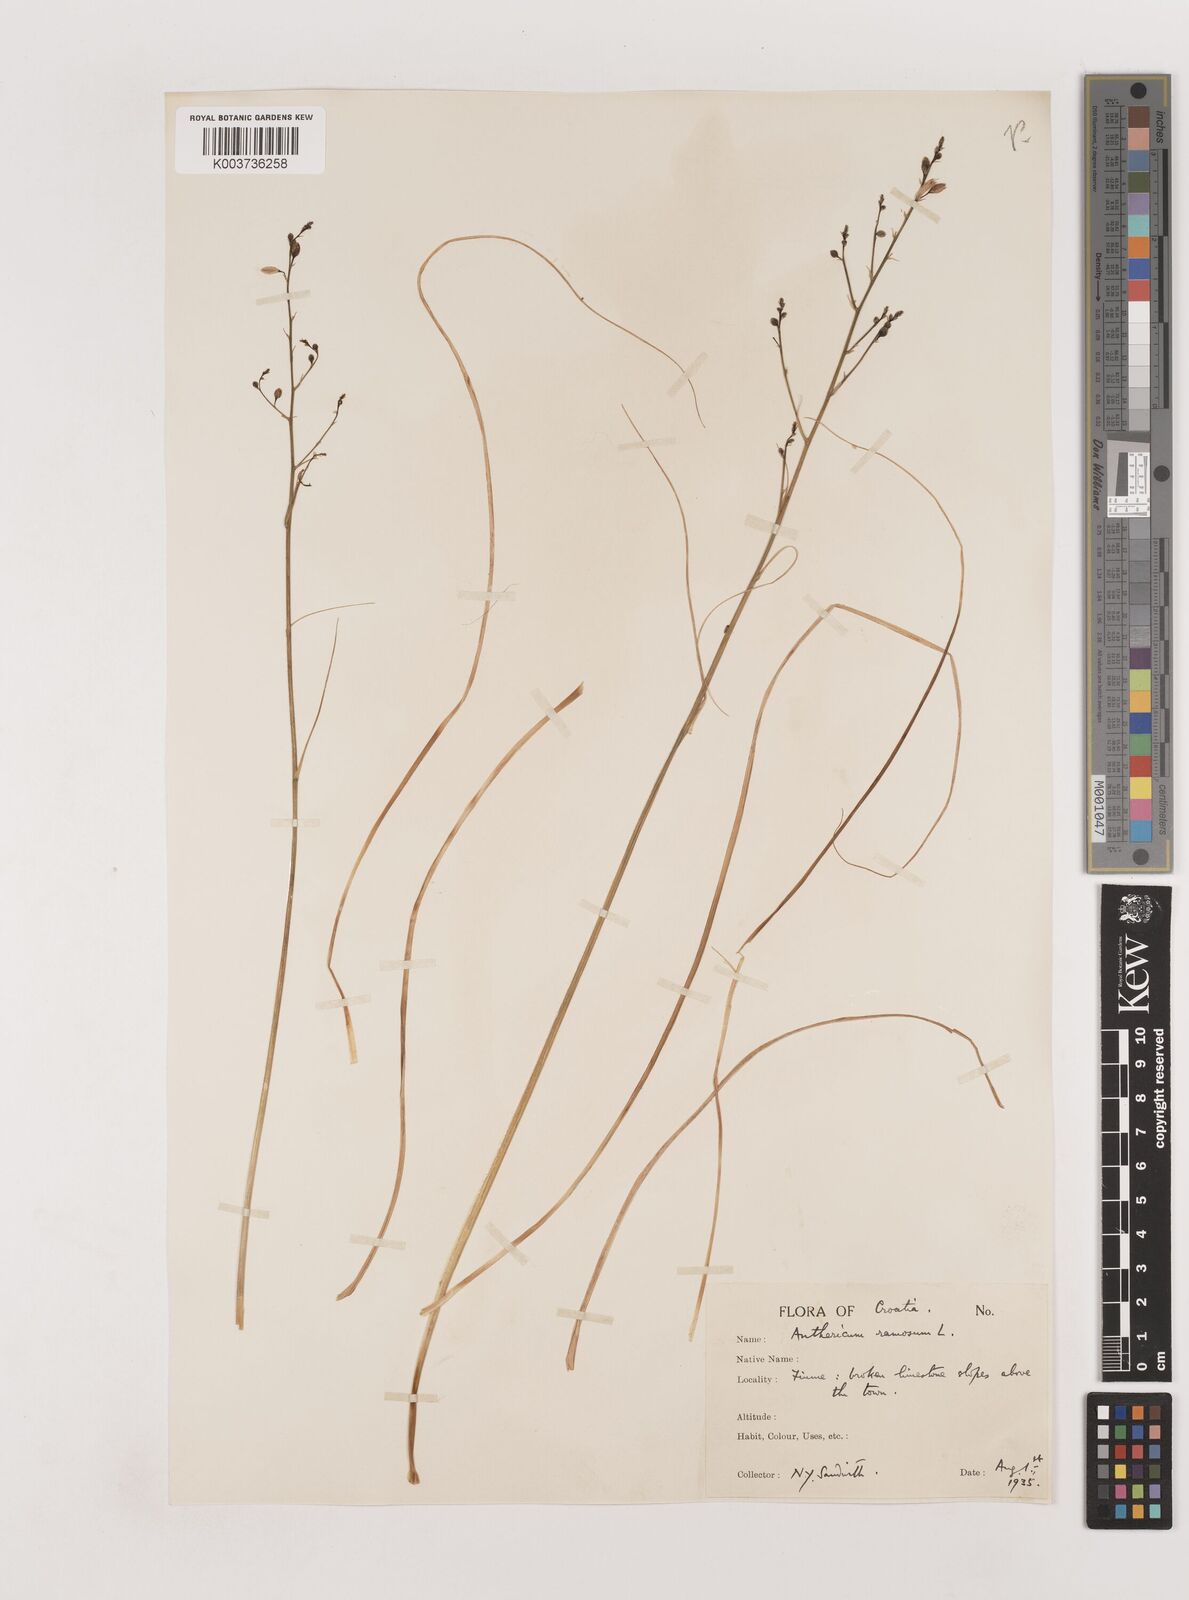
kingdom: Plantae
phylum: Tracheophyta
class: Liliopsida
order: Asparagales
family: Asparagaceae
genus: Anthericum
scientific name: Anthericum ramosum
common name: Branched st. bernard's-lily
